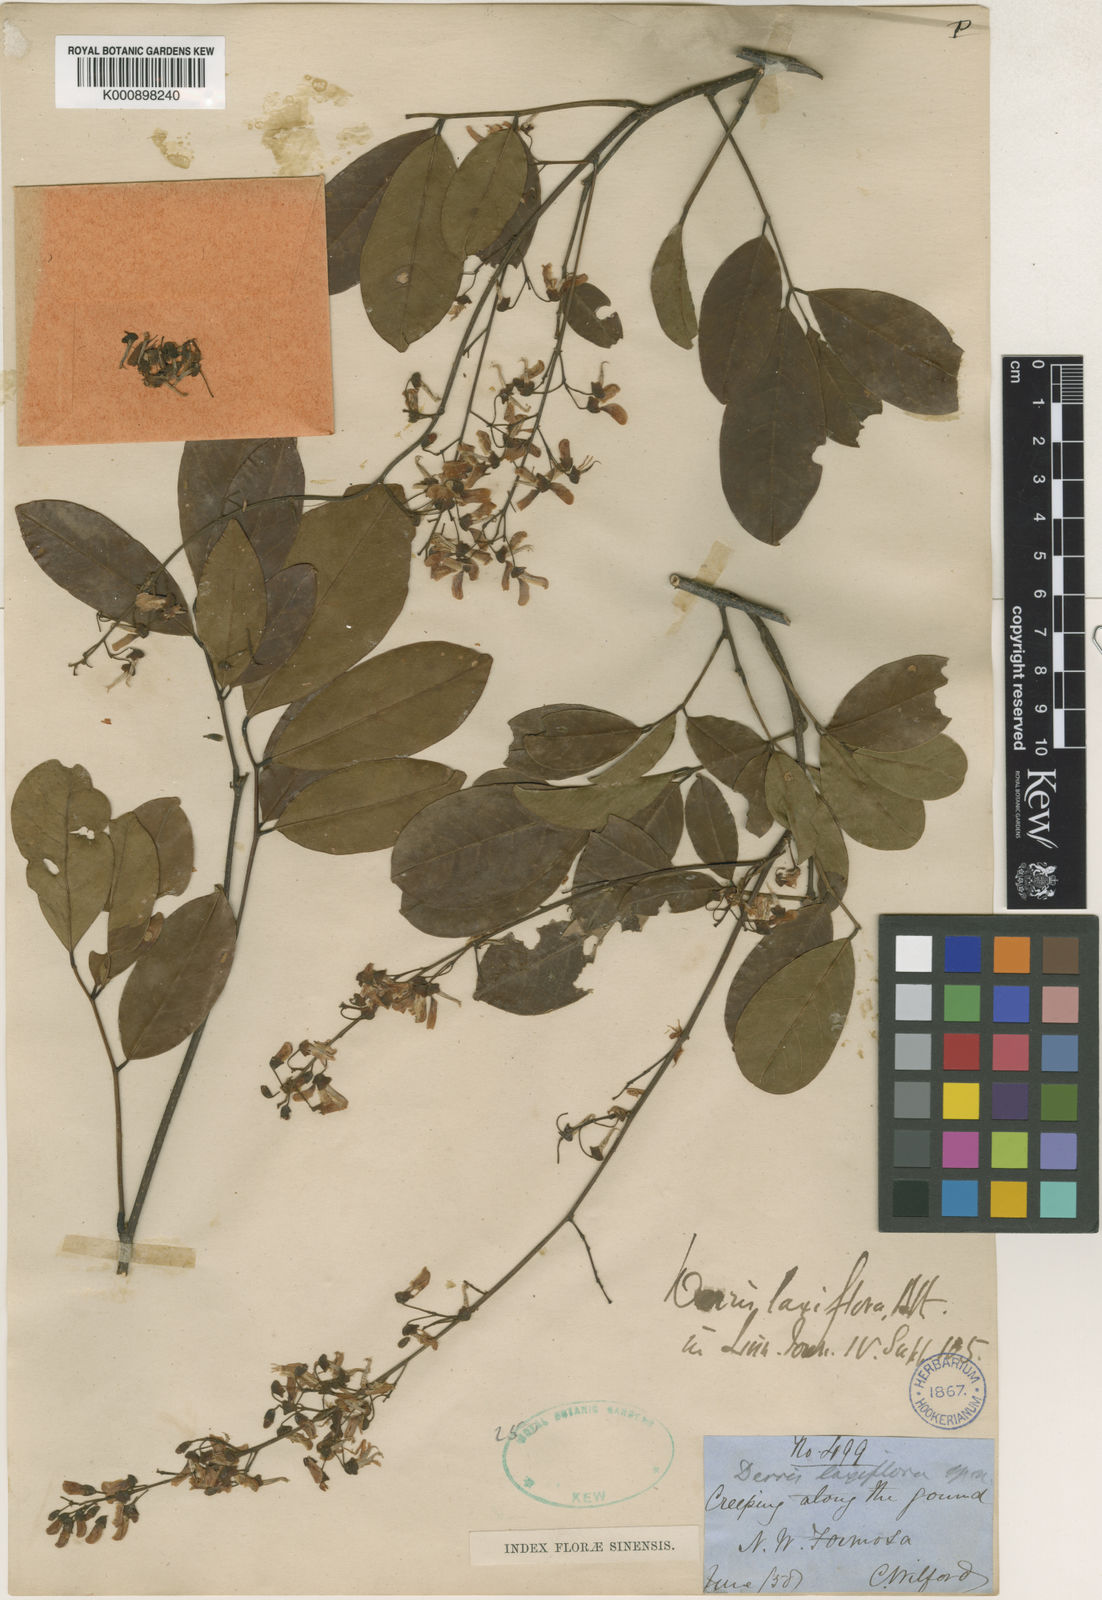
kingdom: Plantae
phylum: Tracheophyta
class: Magnoliopsida
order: Fabales
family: Fabaceae
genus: Derris
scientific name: Derris laxiflora
